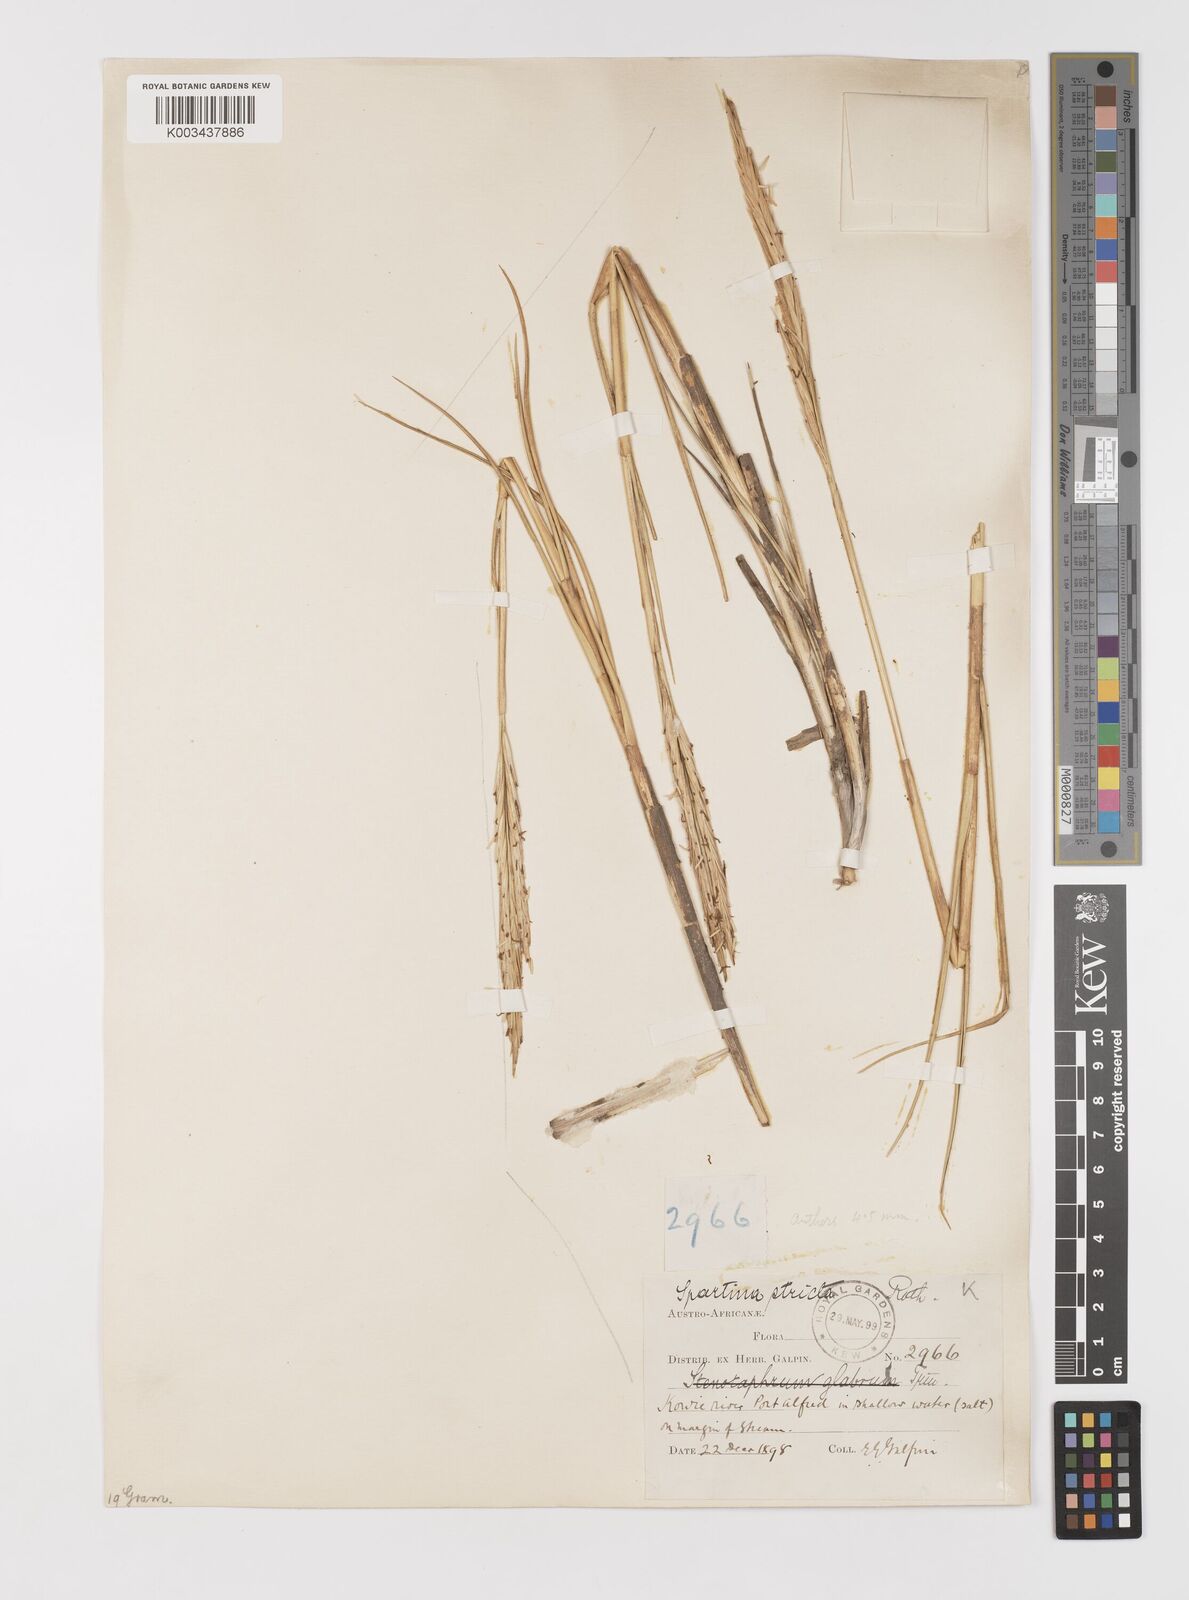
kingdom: Plantae
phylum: Tracheophyta
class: Liliopsida
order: Poales
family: Poaceae
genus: Sporobolus
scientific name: Sporobolus maritimus
